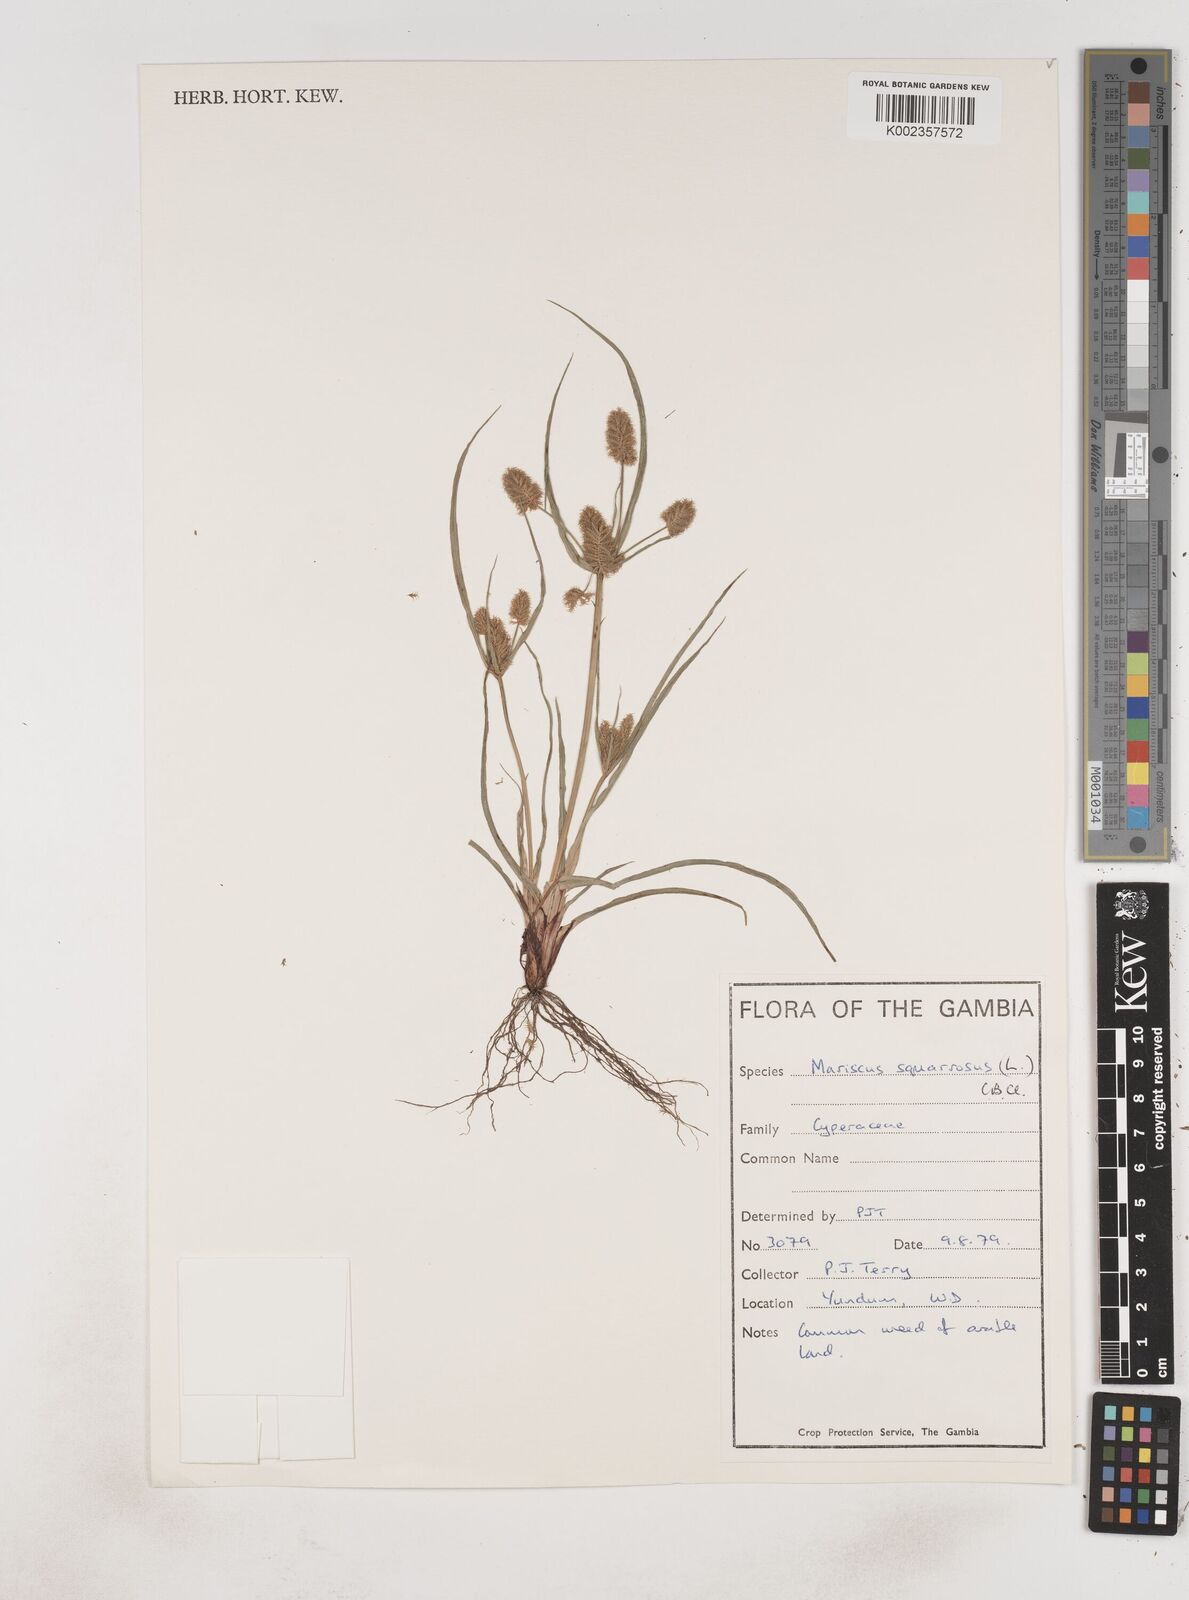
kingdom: Plantae
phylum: Tracheophyta
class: Liliopsida
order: Poales
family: Cyperaceae
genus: Cyperus
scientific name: Cyperus squarrosus
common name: Awned cyperus
